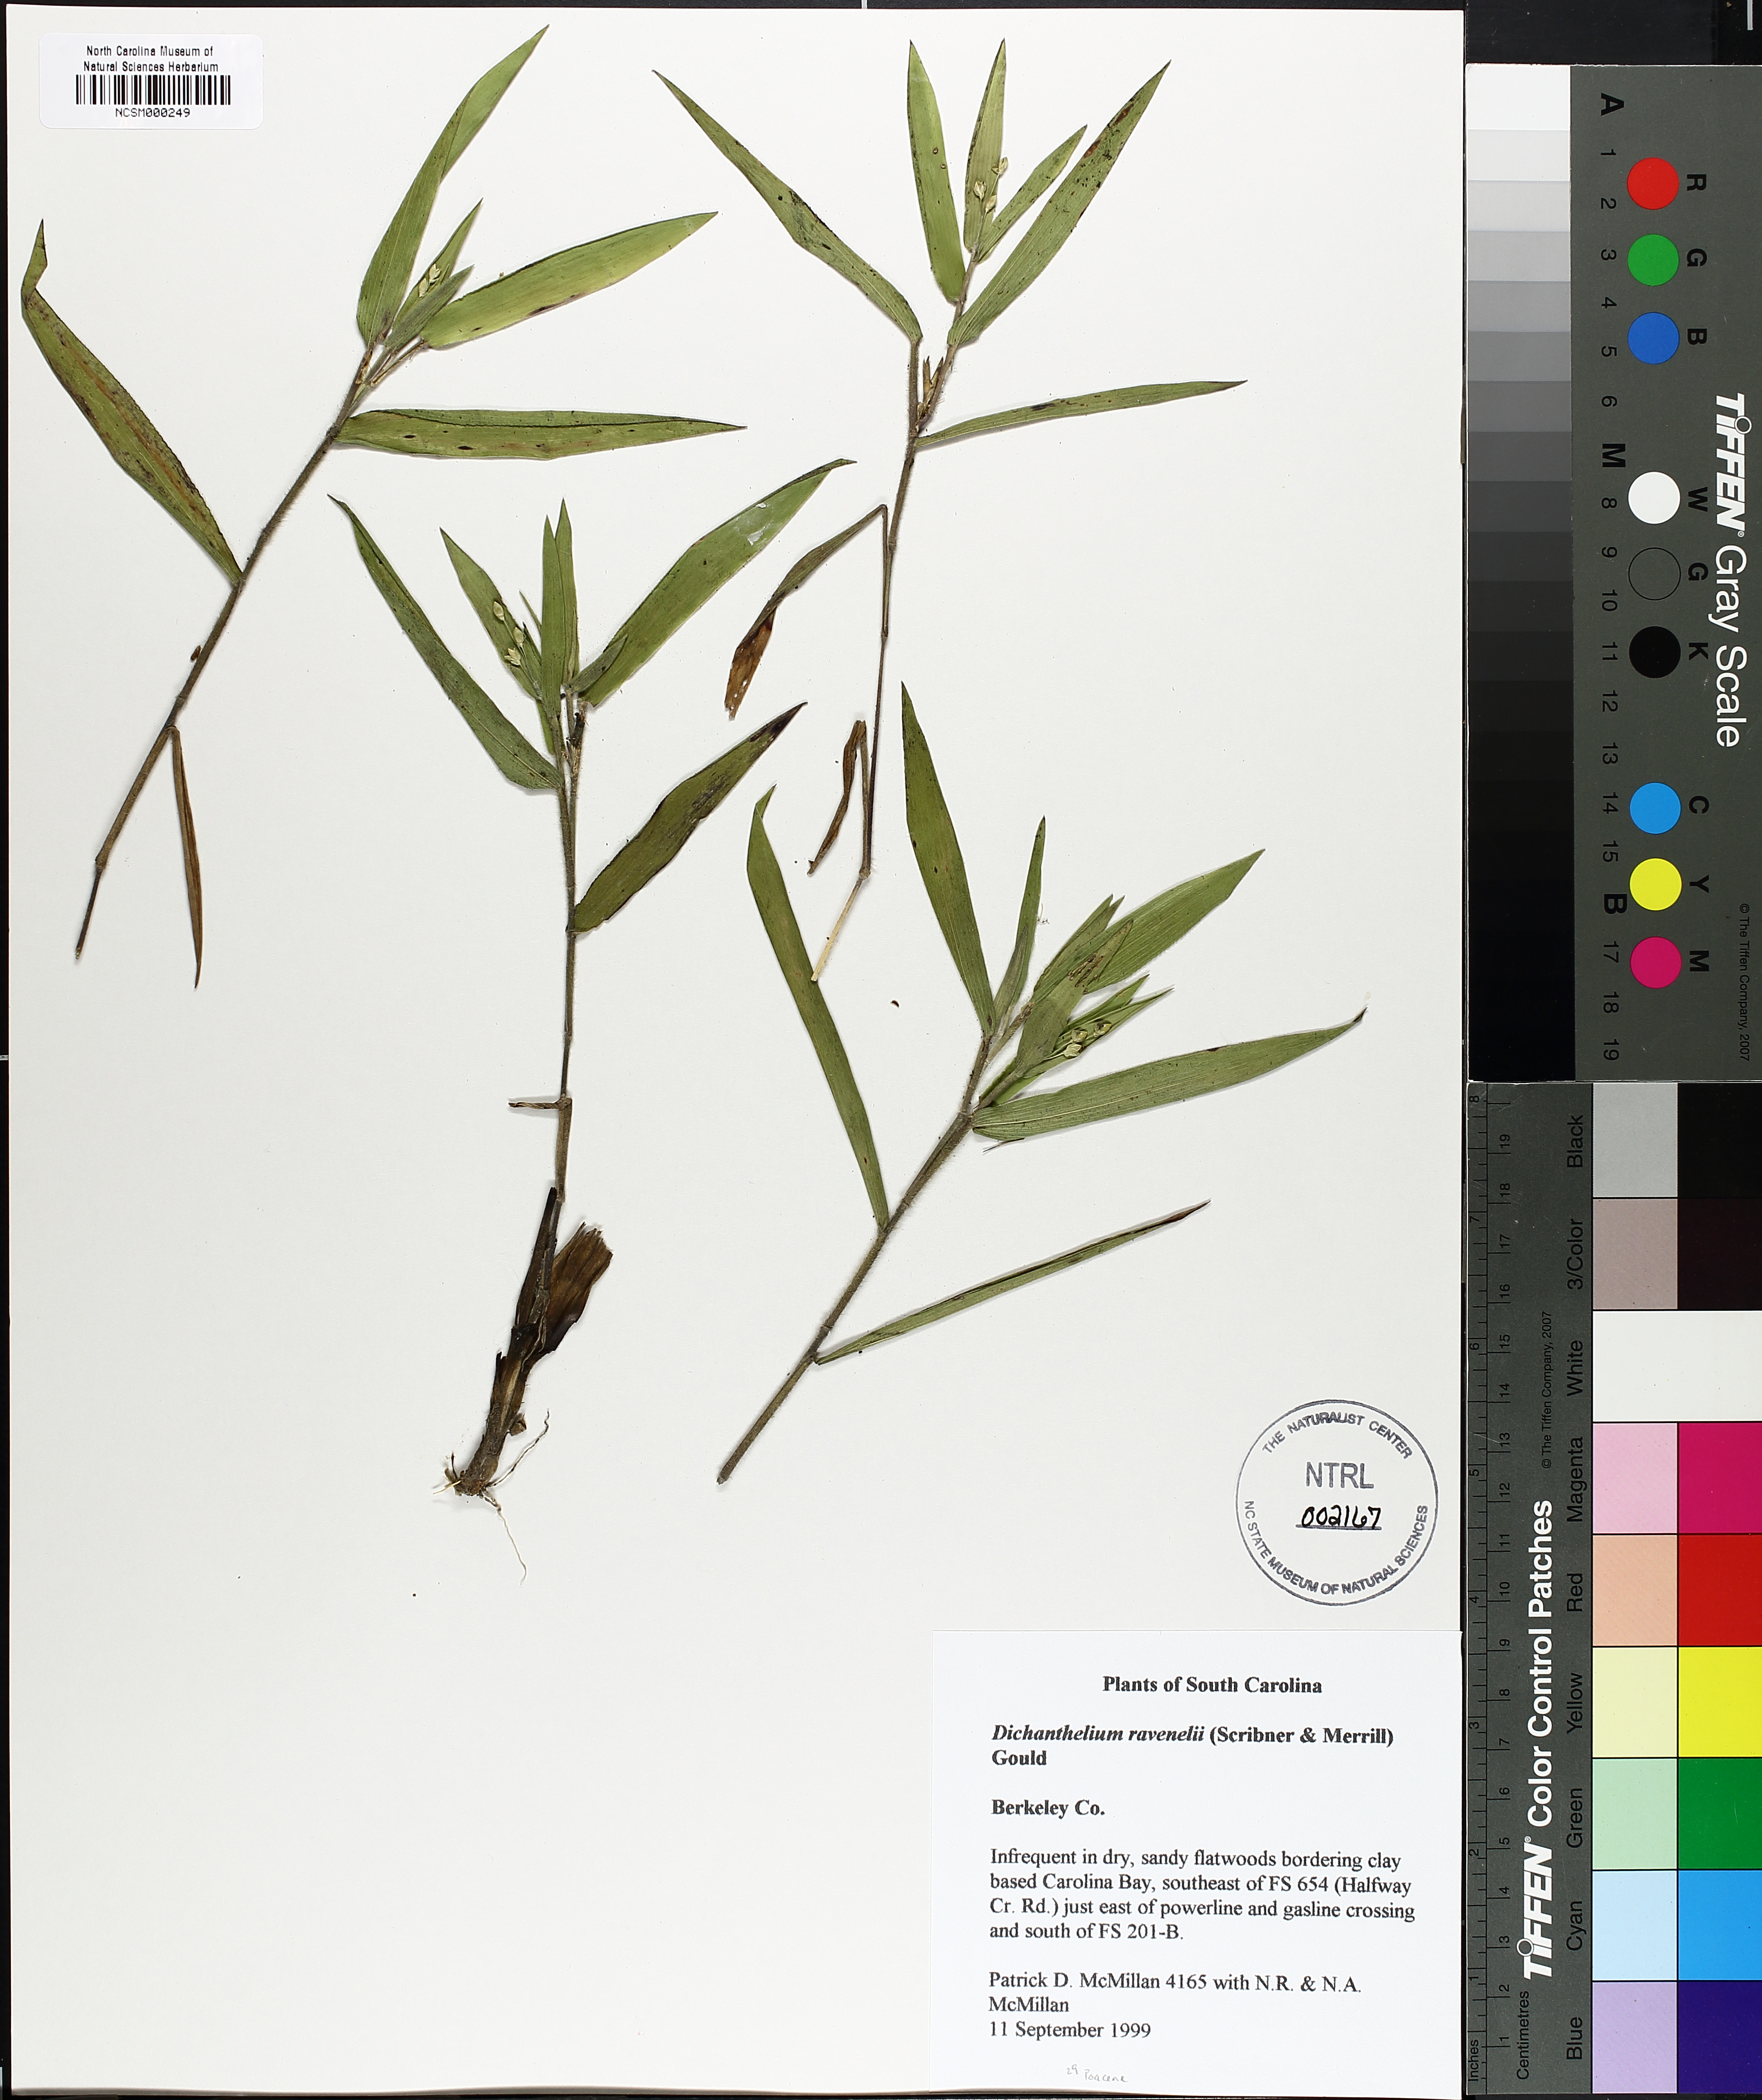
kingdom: Plantae
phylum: Tracheophyta
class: Liliopsida
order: Poales
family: Poaceae
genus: Dichanthelium
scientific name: Dichanthelium ravenelii
